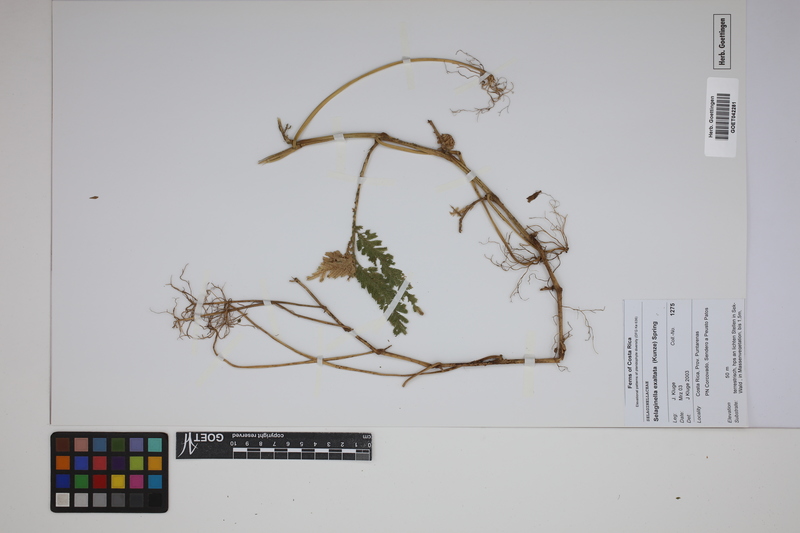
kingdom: Plantae
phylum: Tracheophyta
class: Lycopodiopsida
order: Selaginellales
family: Selaginellaceae
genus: Selaginella
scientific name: Selaginella exaltata
